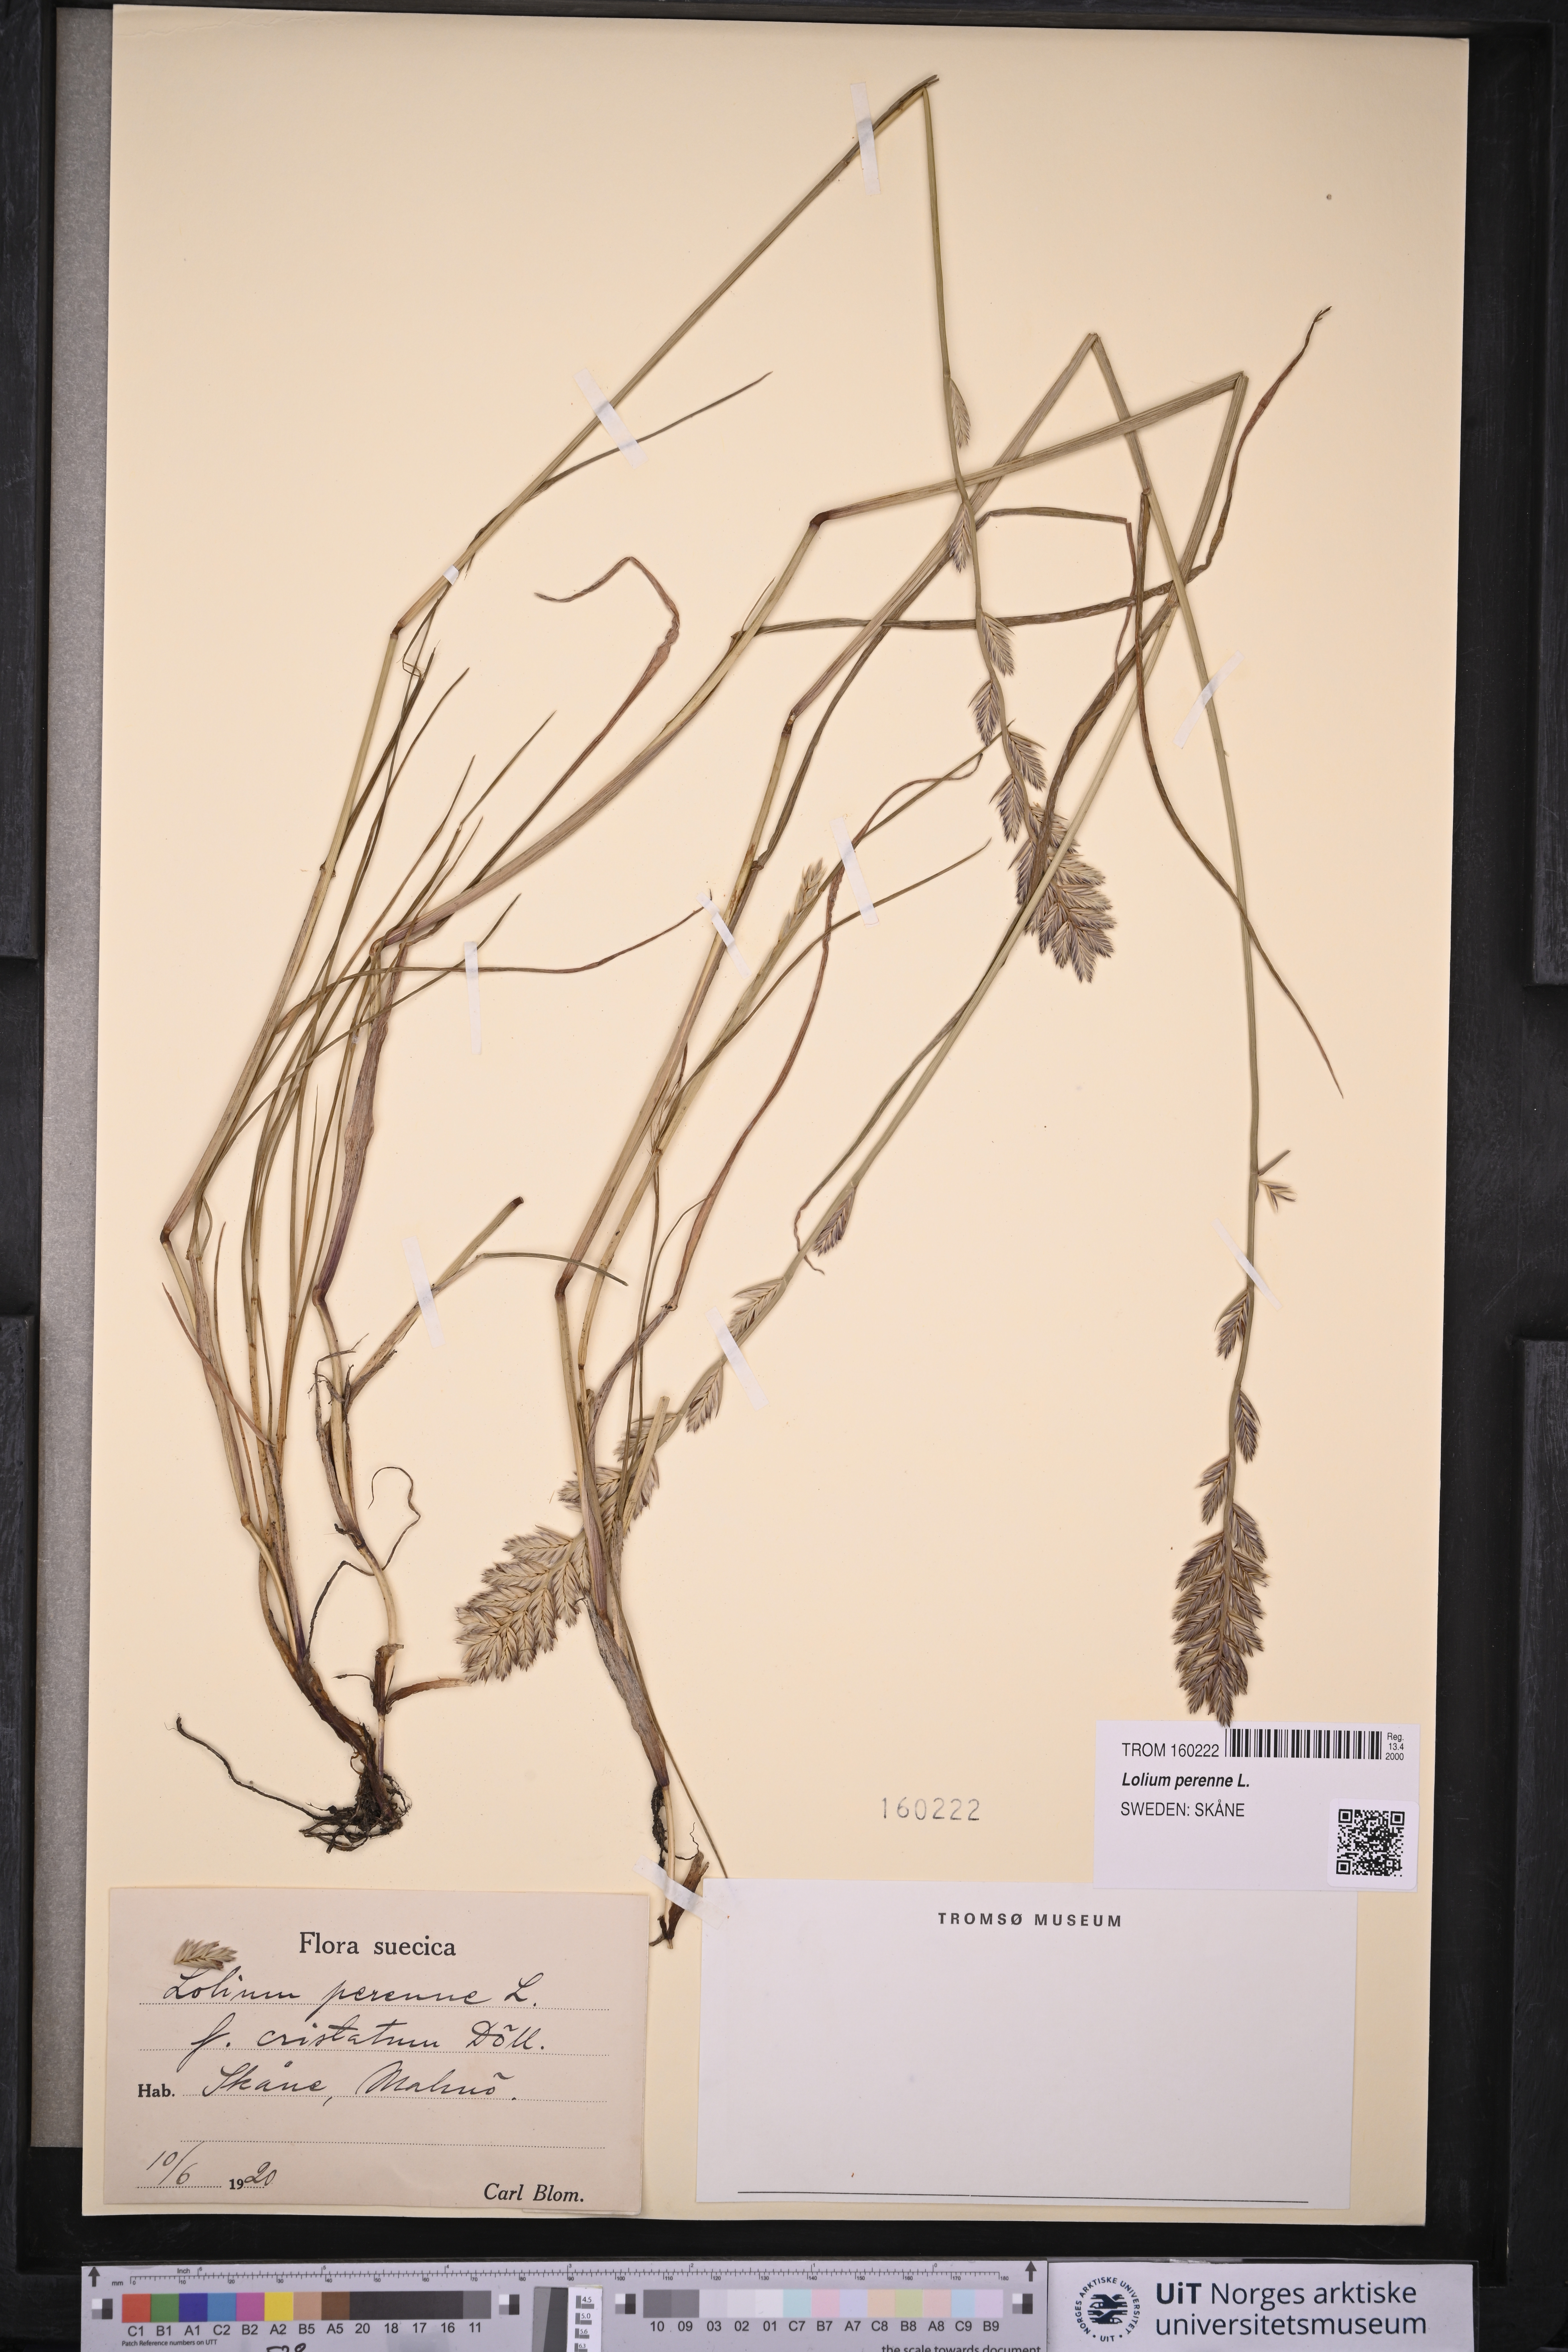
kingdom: Plantae
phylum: Tracheophyta
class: Liliopsida
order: Poales
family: Poaceae
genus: Lolium
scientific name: Lolium perenne
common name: Perennial ryegrass
